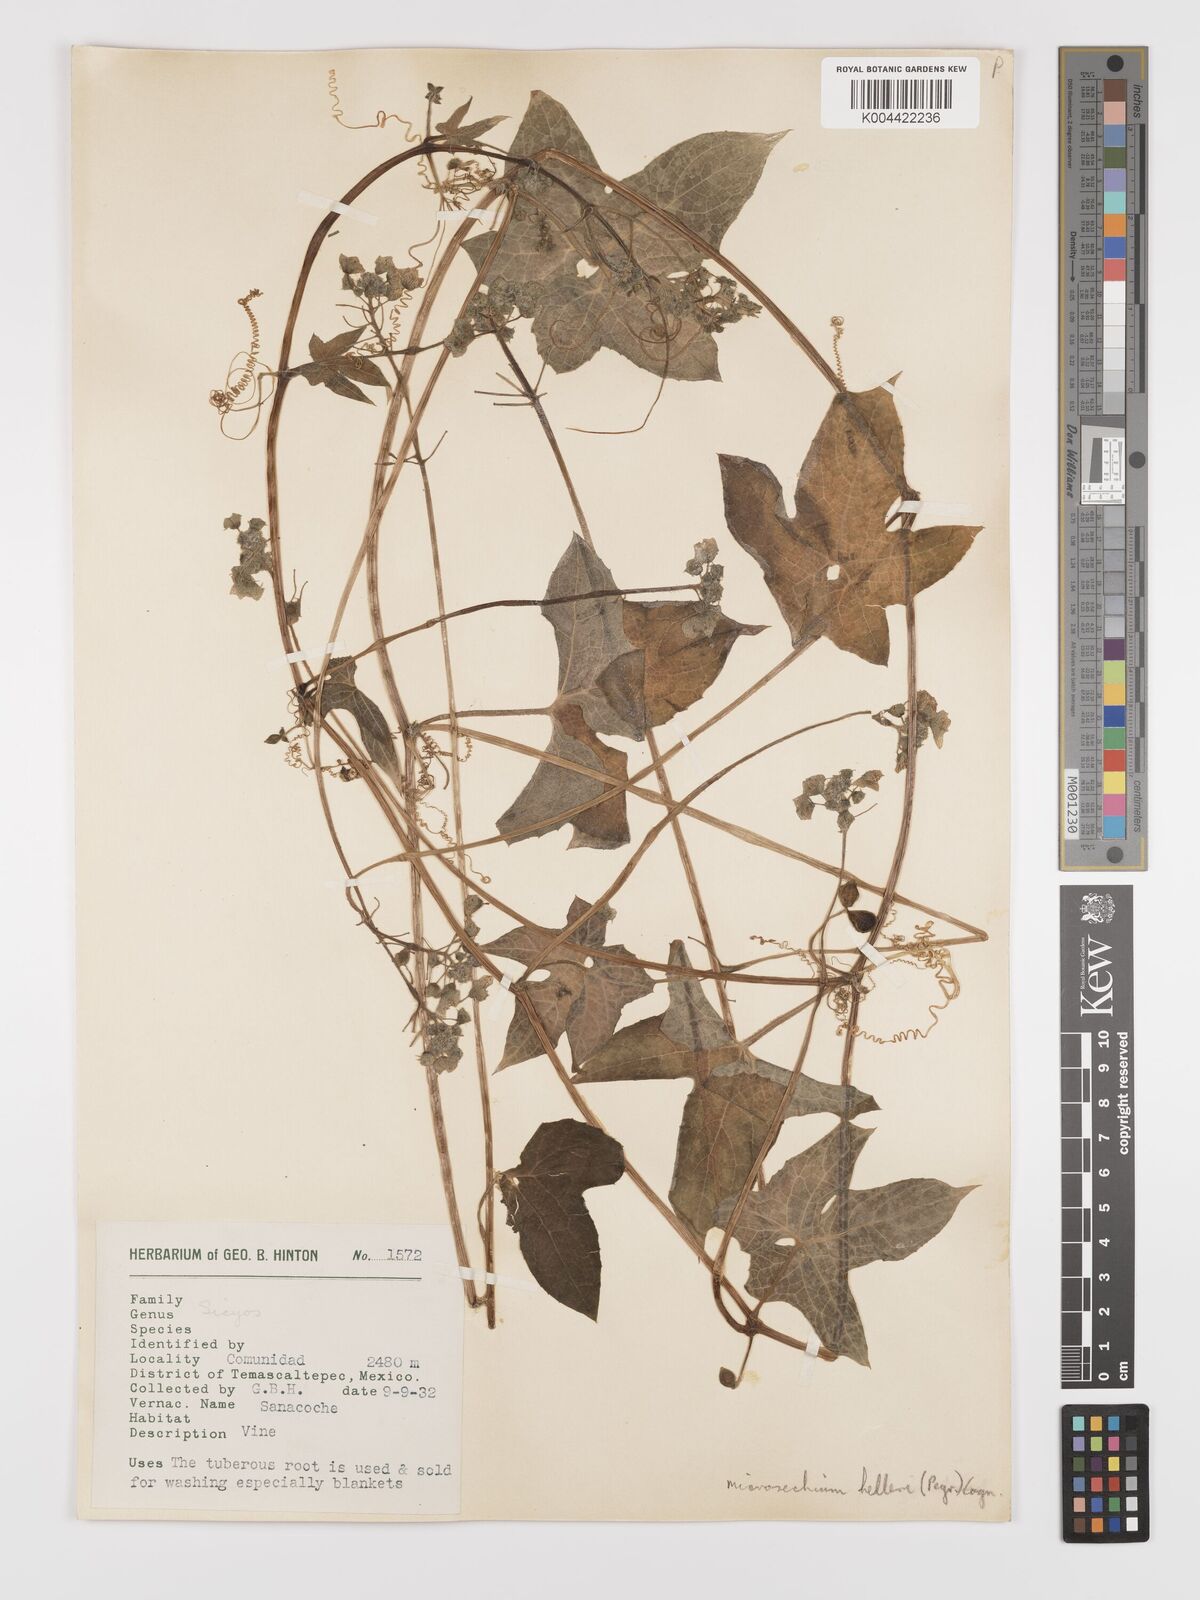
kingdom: Plantae
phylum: Tracheophyta
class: Magnoliopsida
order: Cucurbitales
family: Cucurbitaceae
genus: Microsechium
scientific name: Microsechium palmatum
